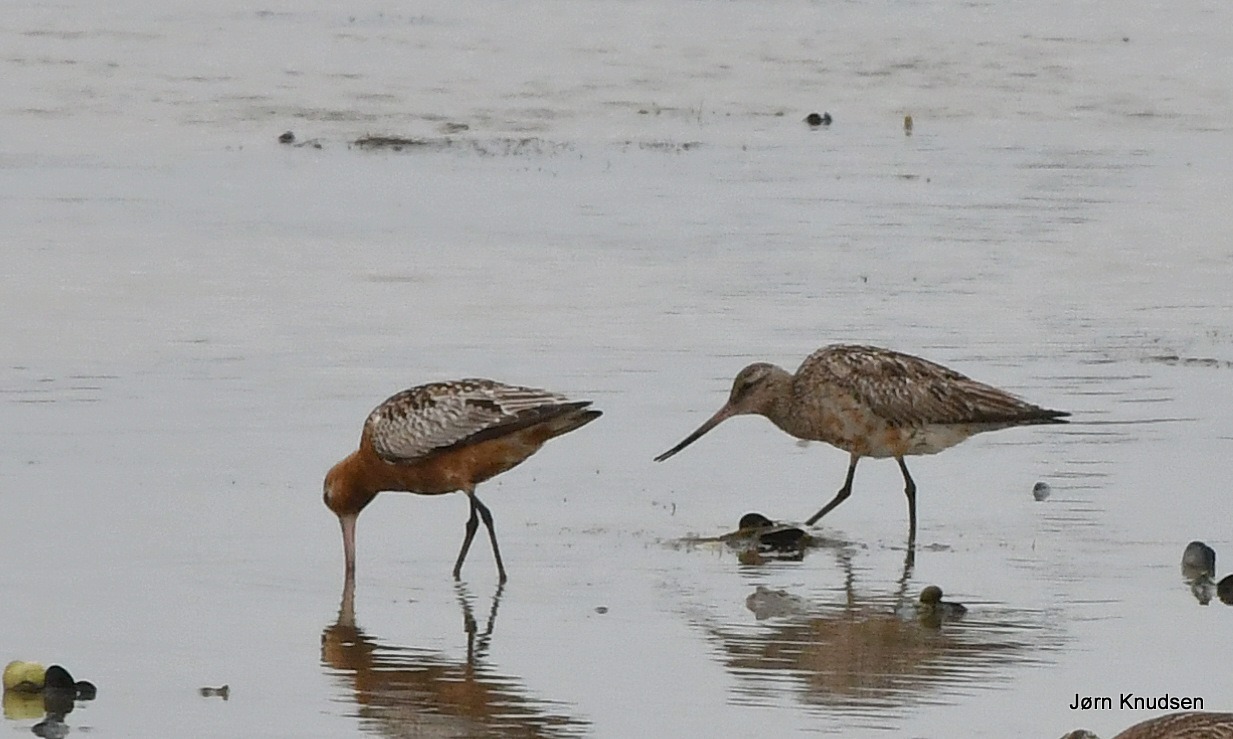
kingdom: Animalia
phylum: Chordata
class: Aves
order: Charadriiformes
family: Scolopacidae
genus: Limosa
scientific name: Limosa lapponica
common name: Lille kobbersneppe
